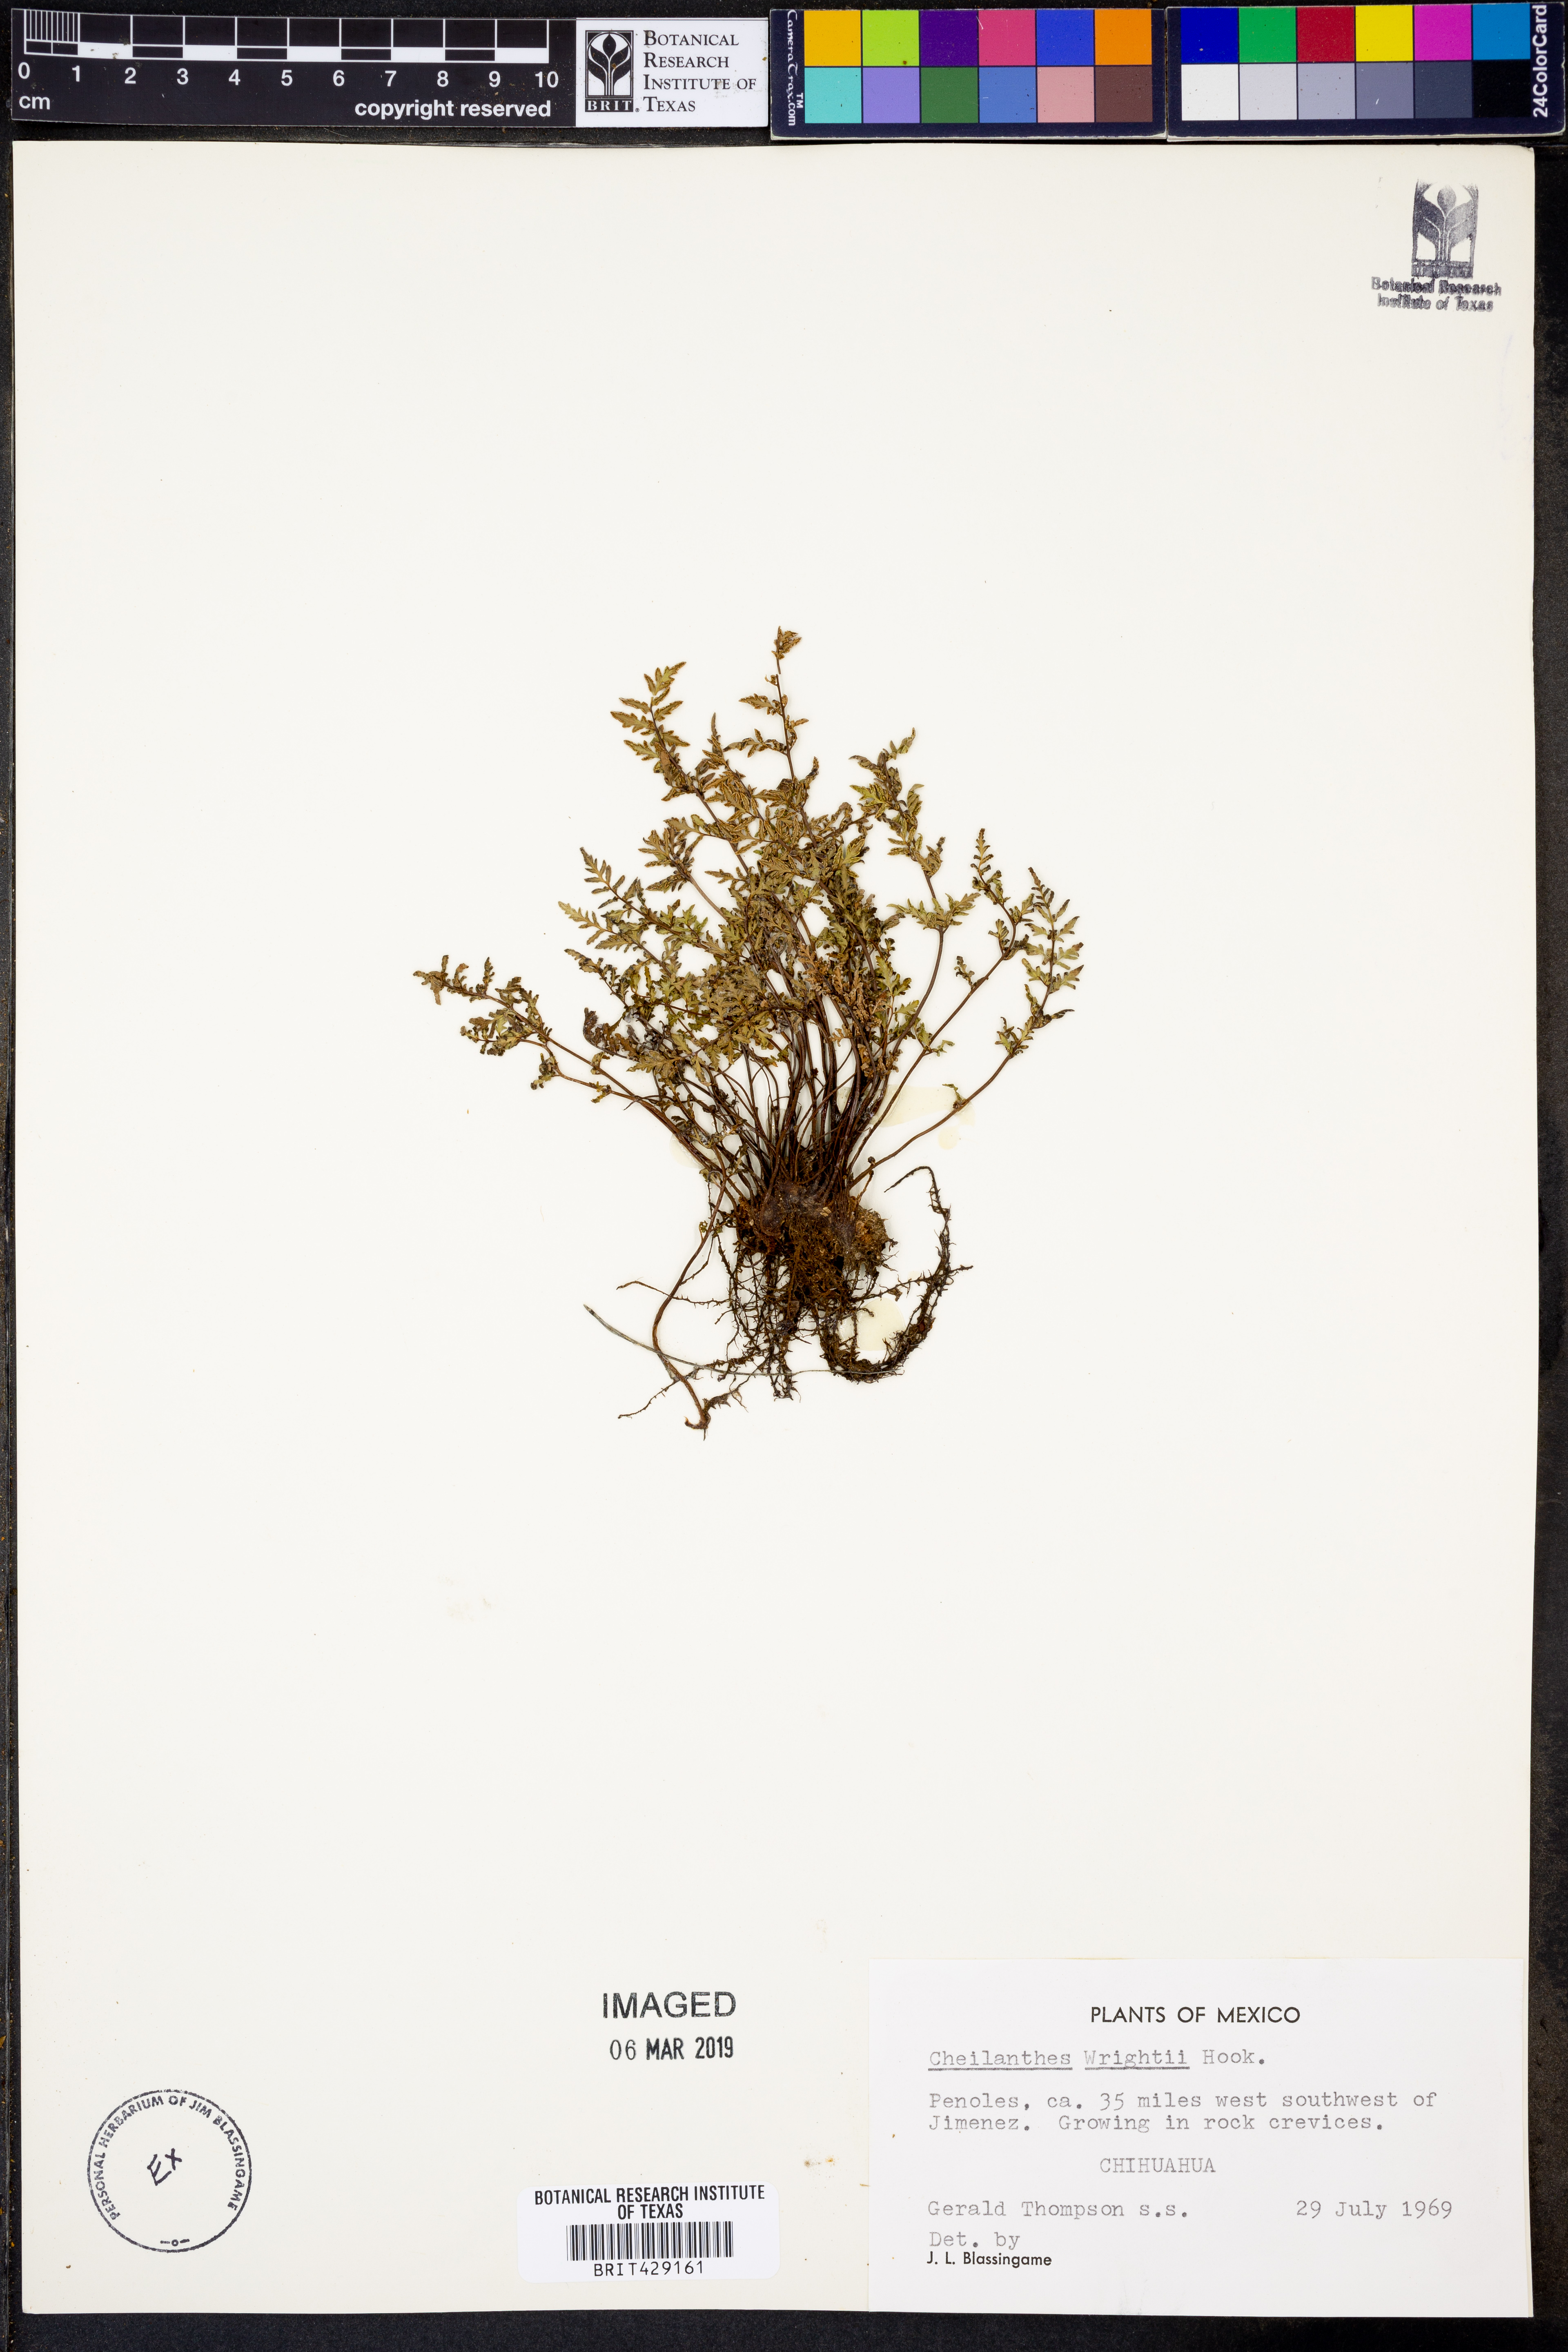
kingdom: Plantae
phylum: Tracheophyta
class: Polypodiopsida
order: Polypodiales
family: Pteridaceae
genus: Myriopteris
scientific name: Myriopteris wrightii
